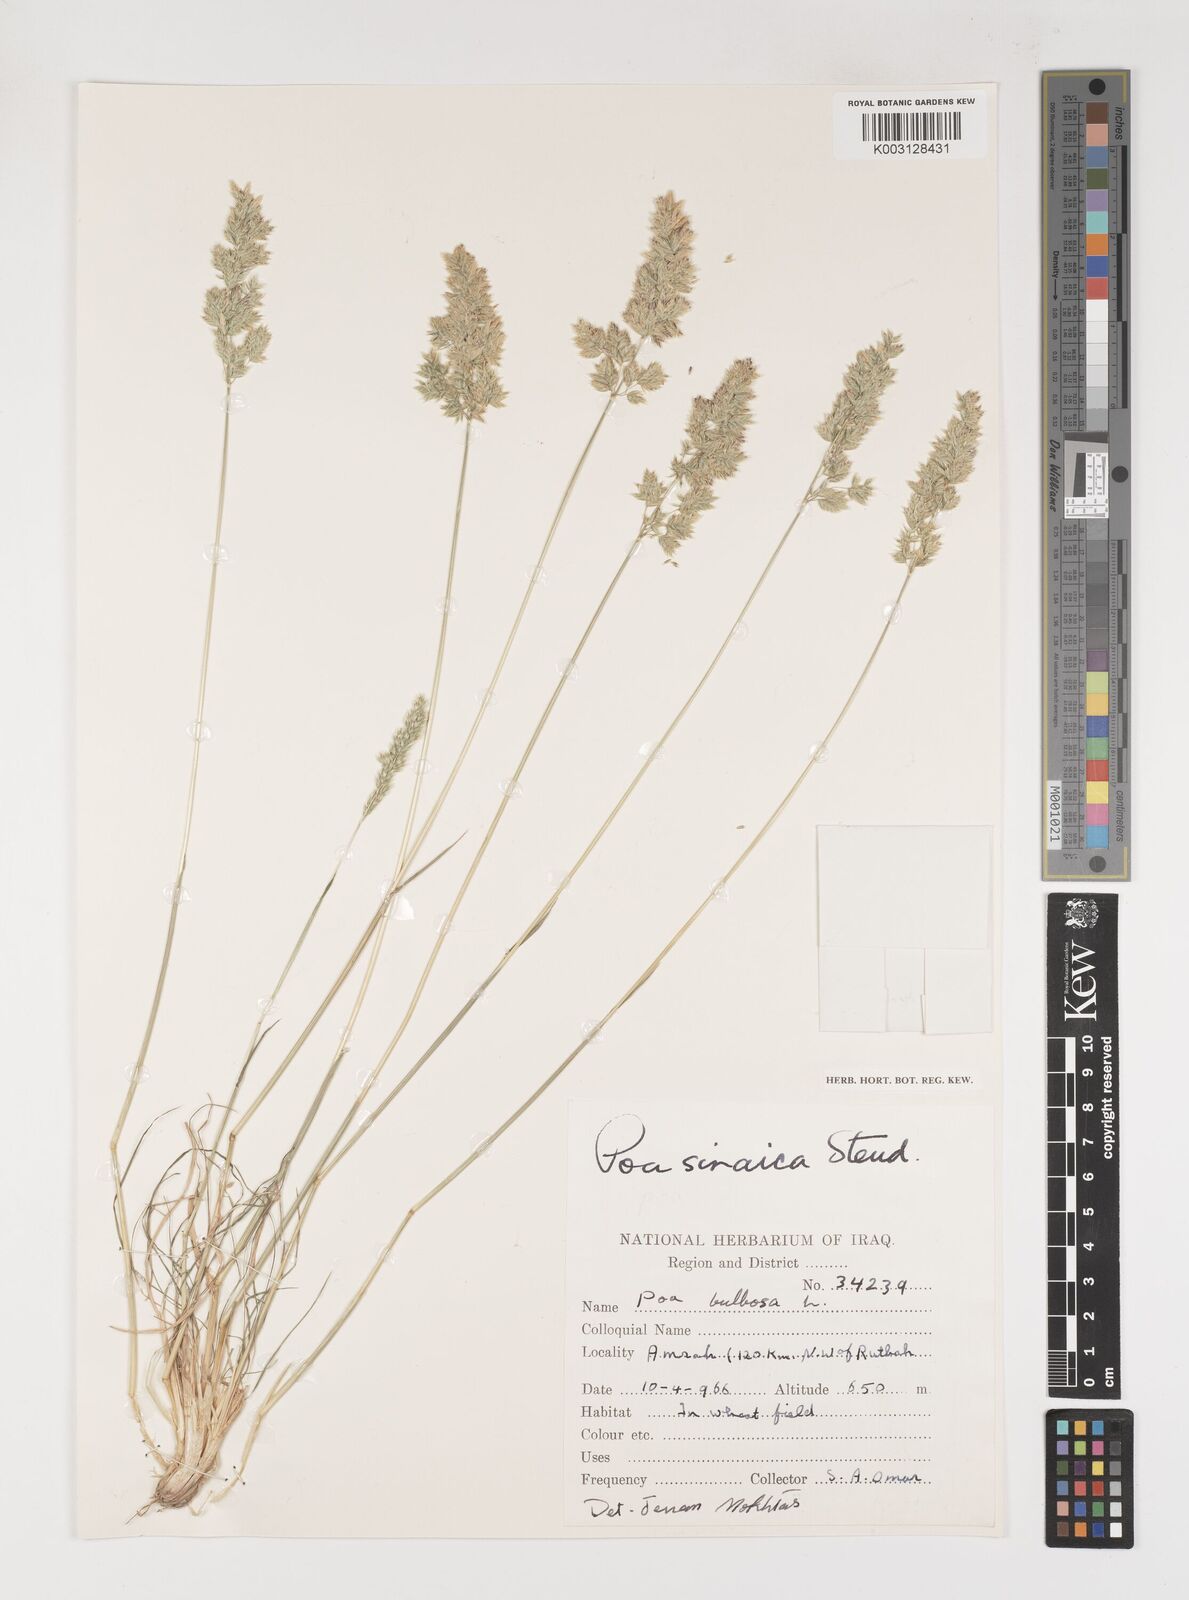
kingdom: Plantae
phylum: Tracheophyta
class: Liliopsida
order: Poales
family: Poaceae
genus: Poa
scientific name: Poa sinaica
